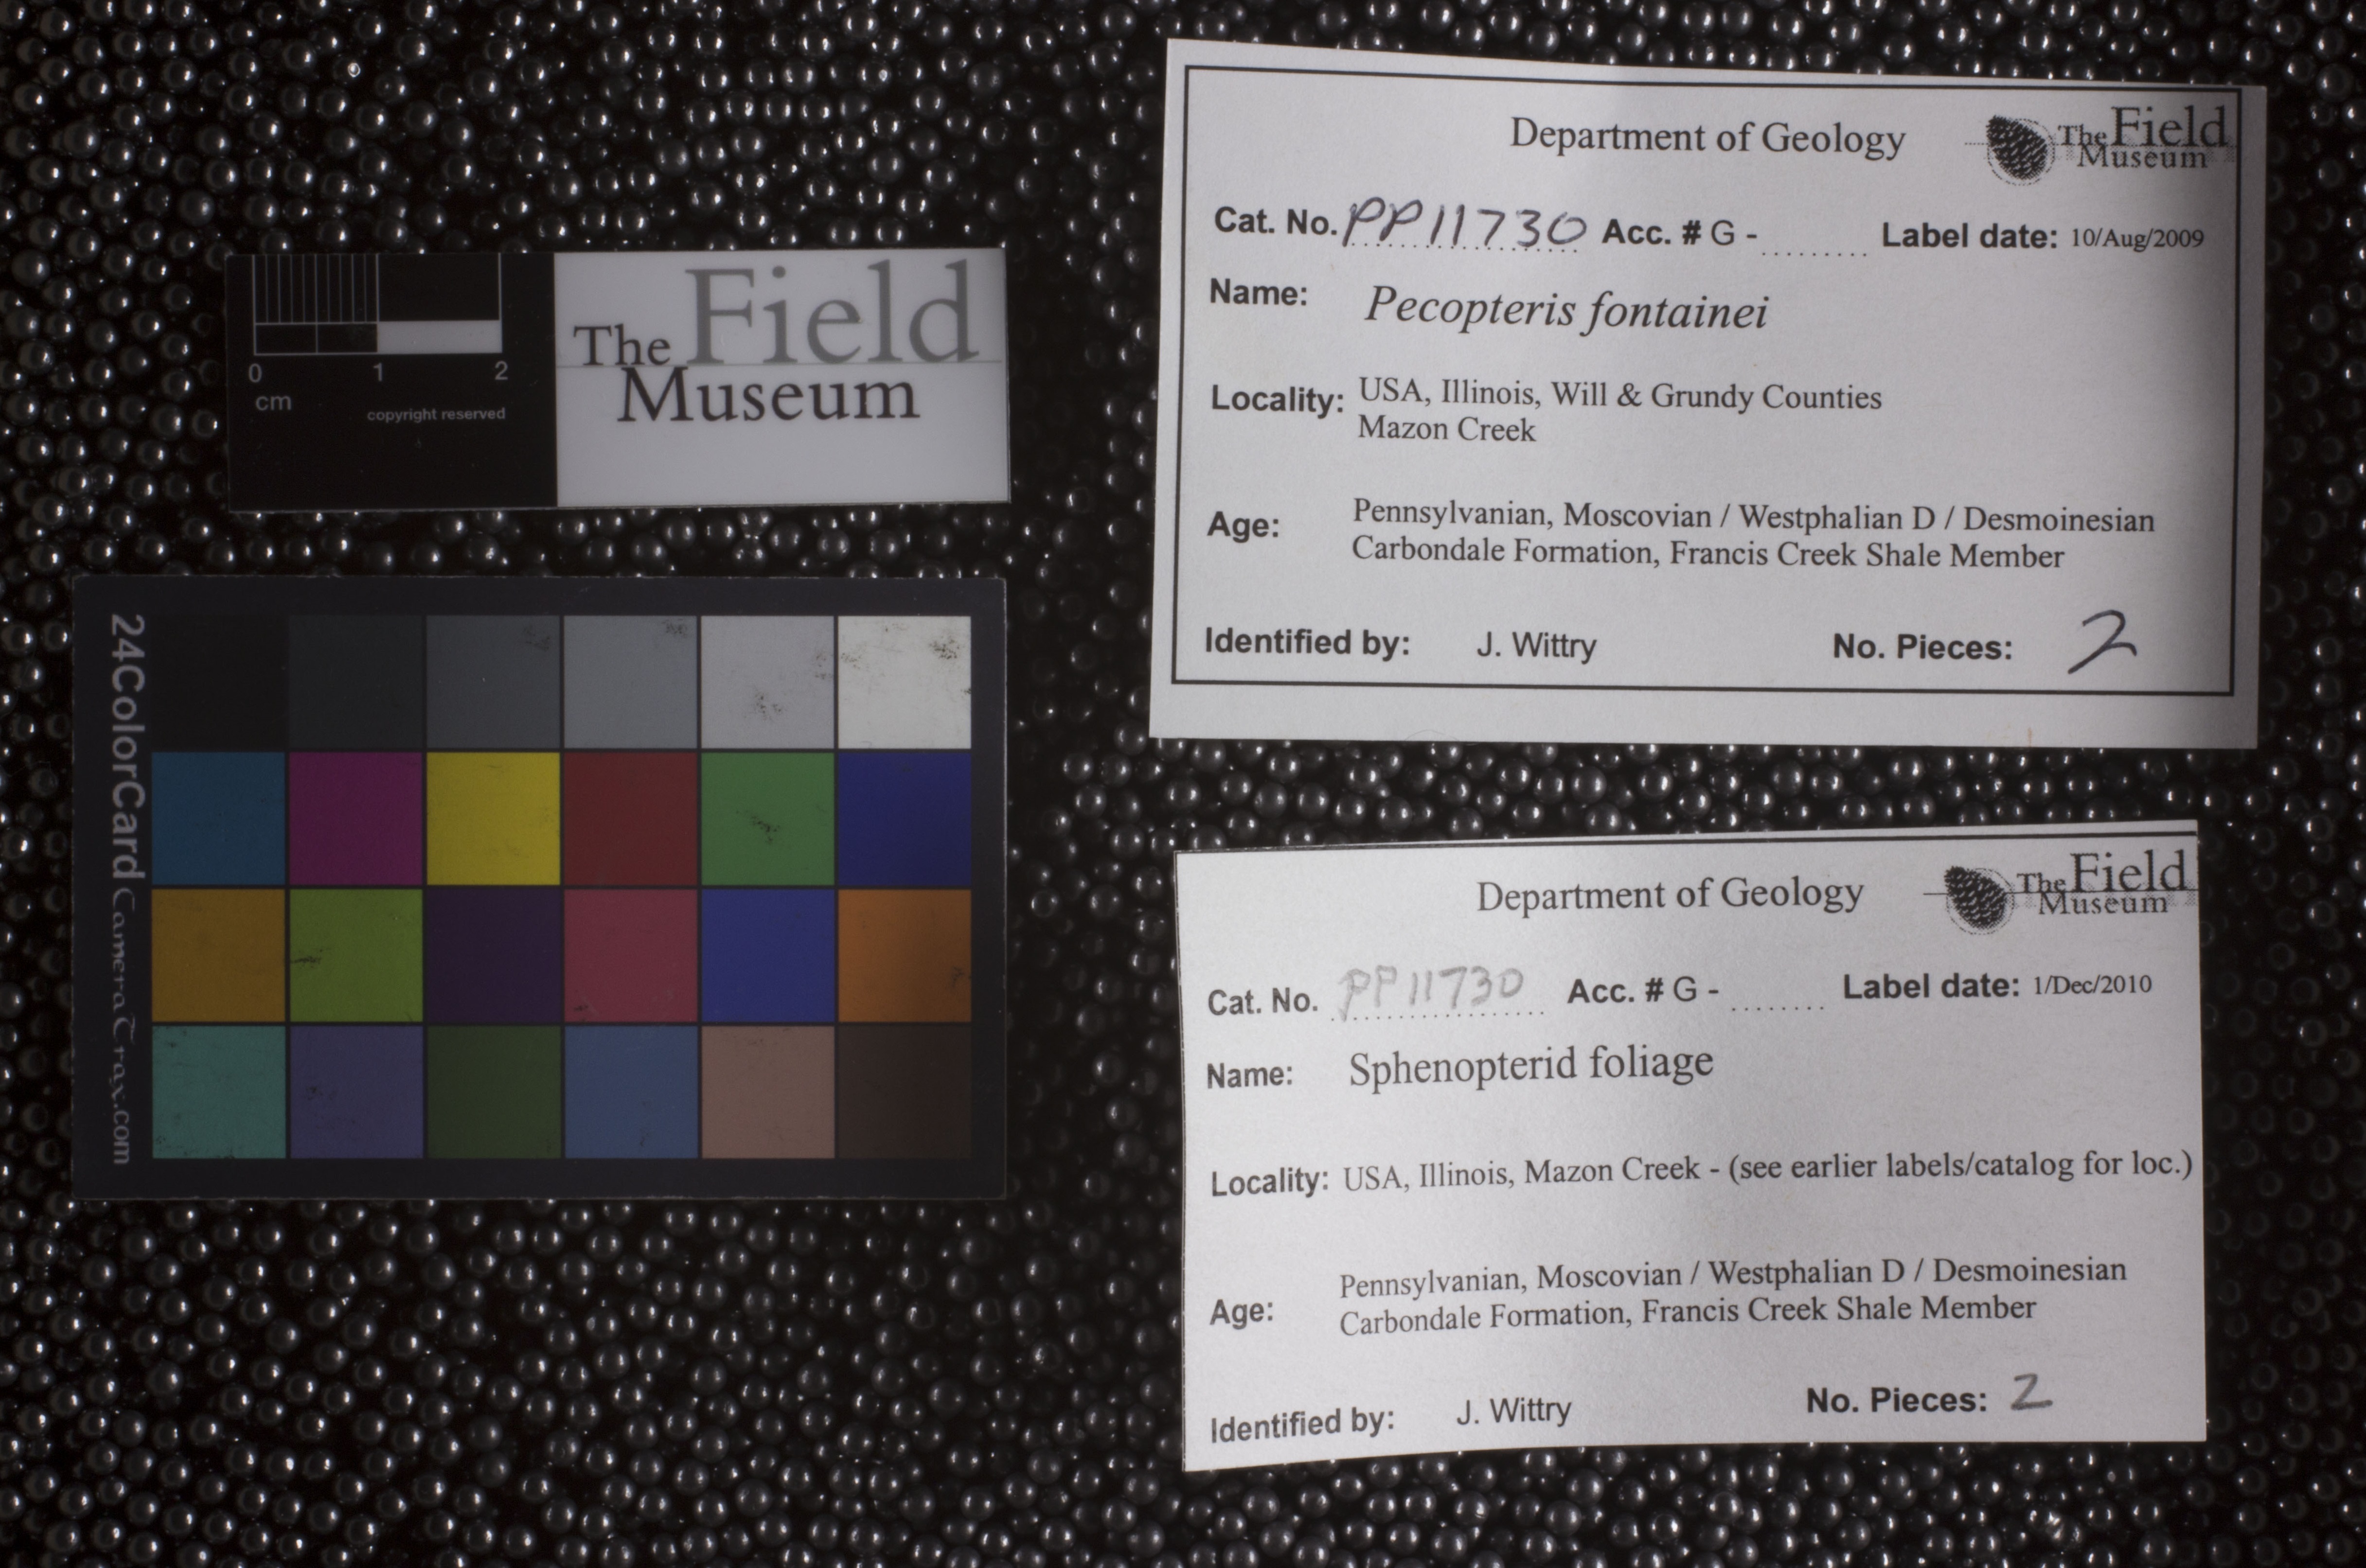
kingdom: Plantae
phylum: Tracheophyta
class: Polypodiopsida
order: Marattiales
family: Asterothecaceae
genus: Pecopteris
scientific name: Pecopteris
